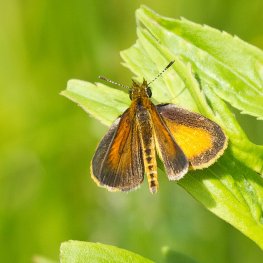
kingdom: Animalia
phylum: Arthropoda
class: Insecta
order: Lepidoptera
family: Hesperiidae
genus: Ancyloxypha
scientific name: Ancyloxypha numitor
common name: Least Skipper
